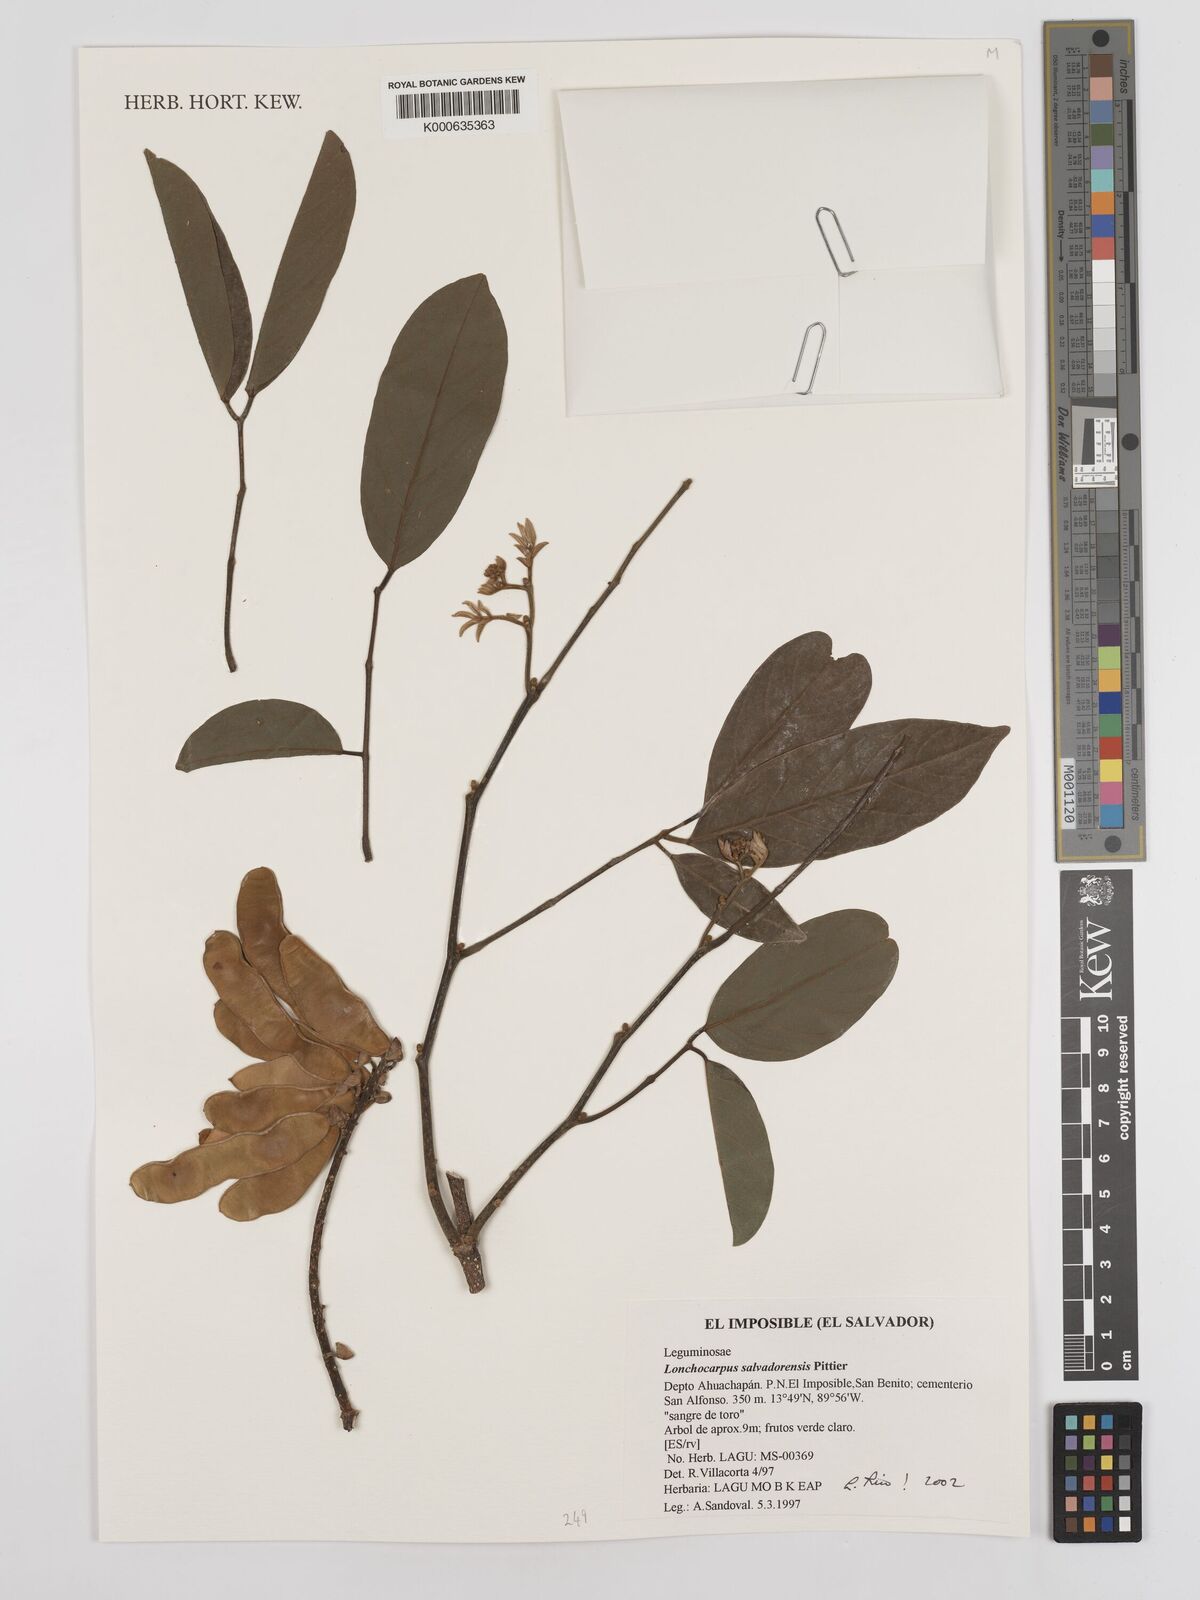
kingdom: Plantae
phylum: Tracheophyta
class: Magnoliopsida
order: Fabales
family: Fabaceae
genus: Lonchocarpus
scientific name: Lonchocarpus salvadorensis
